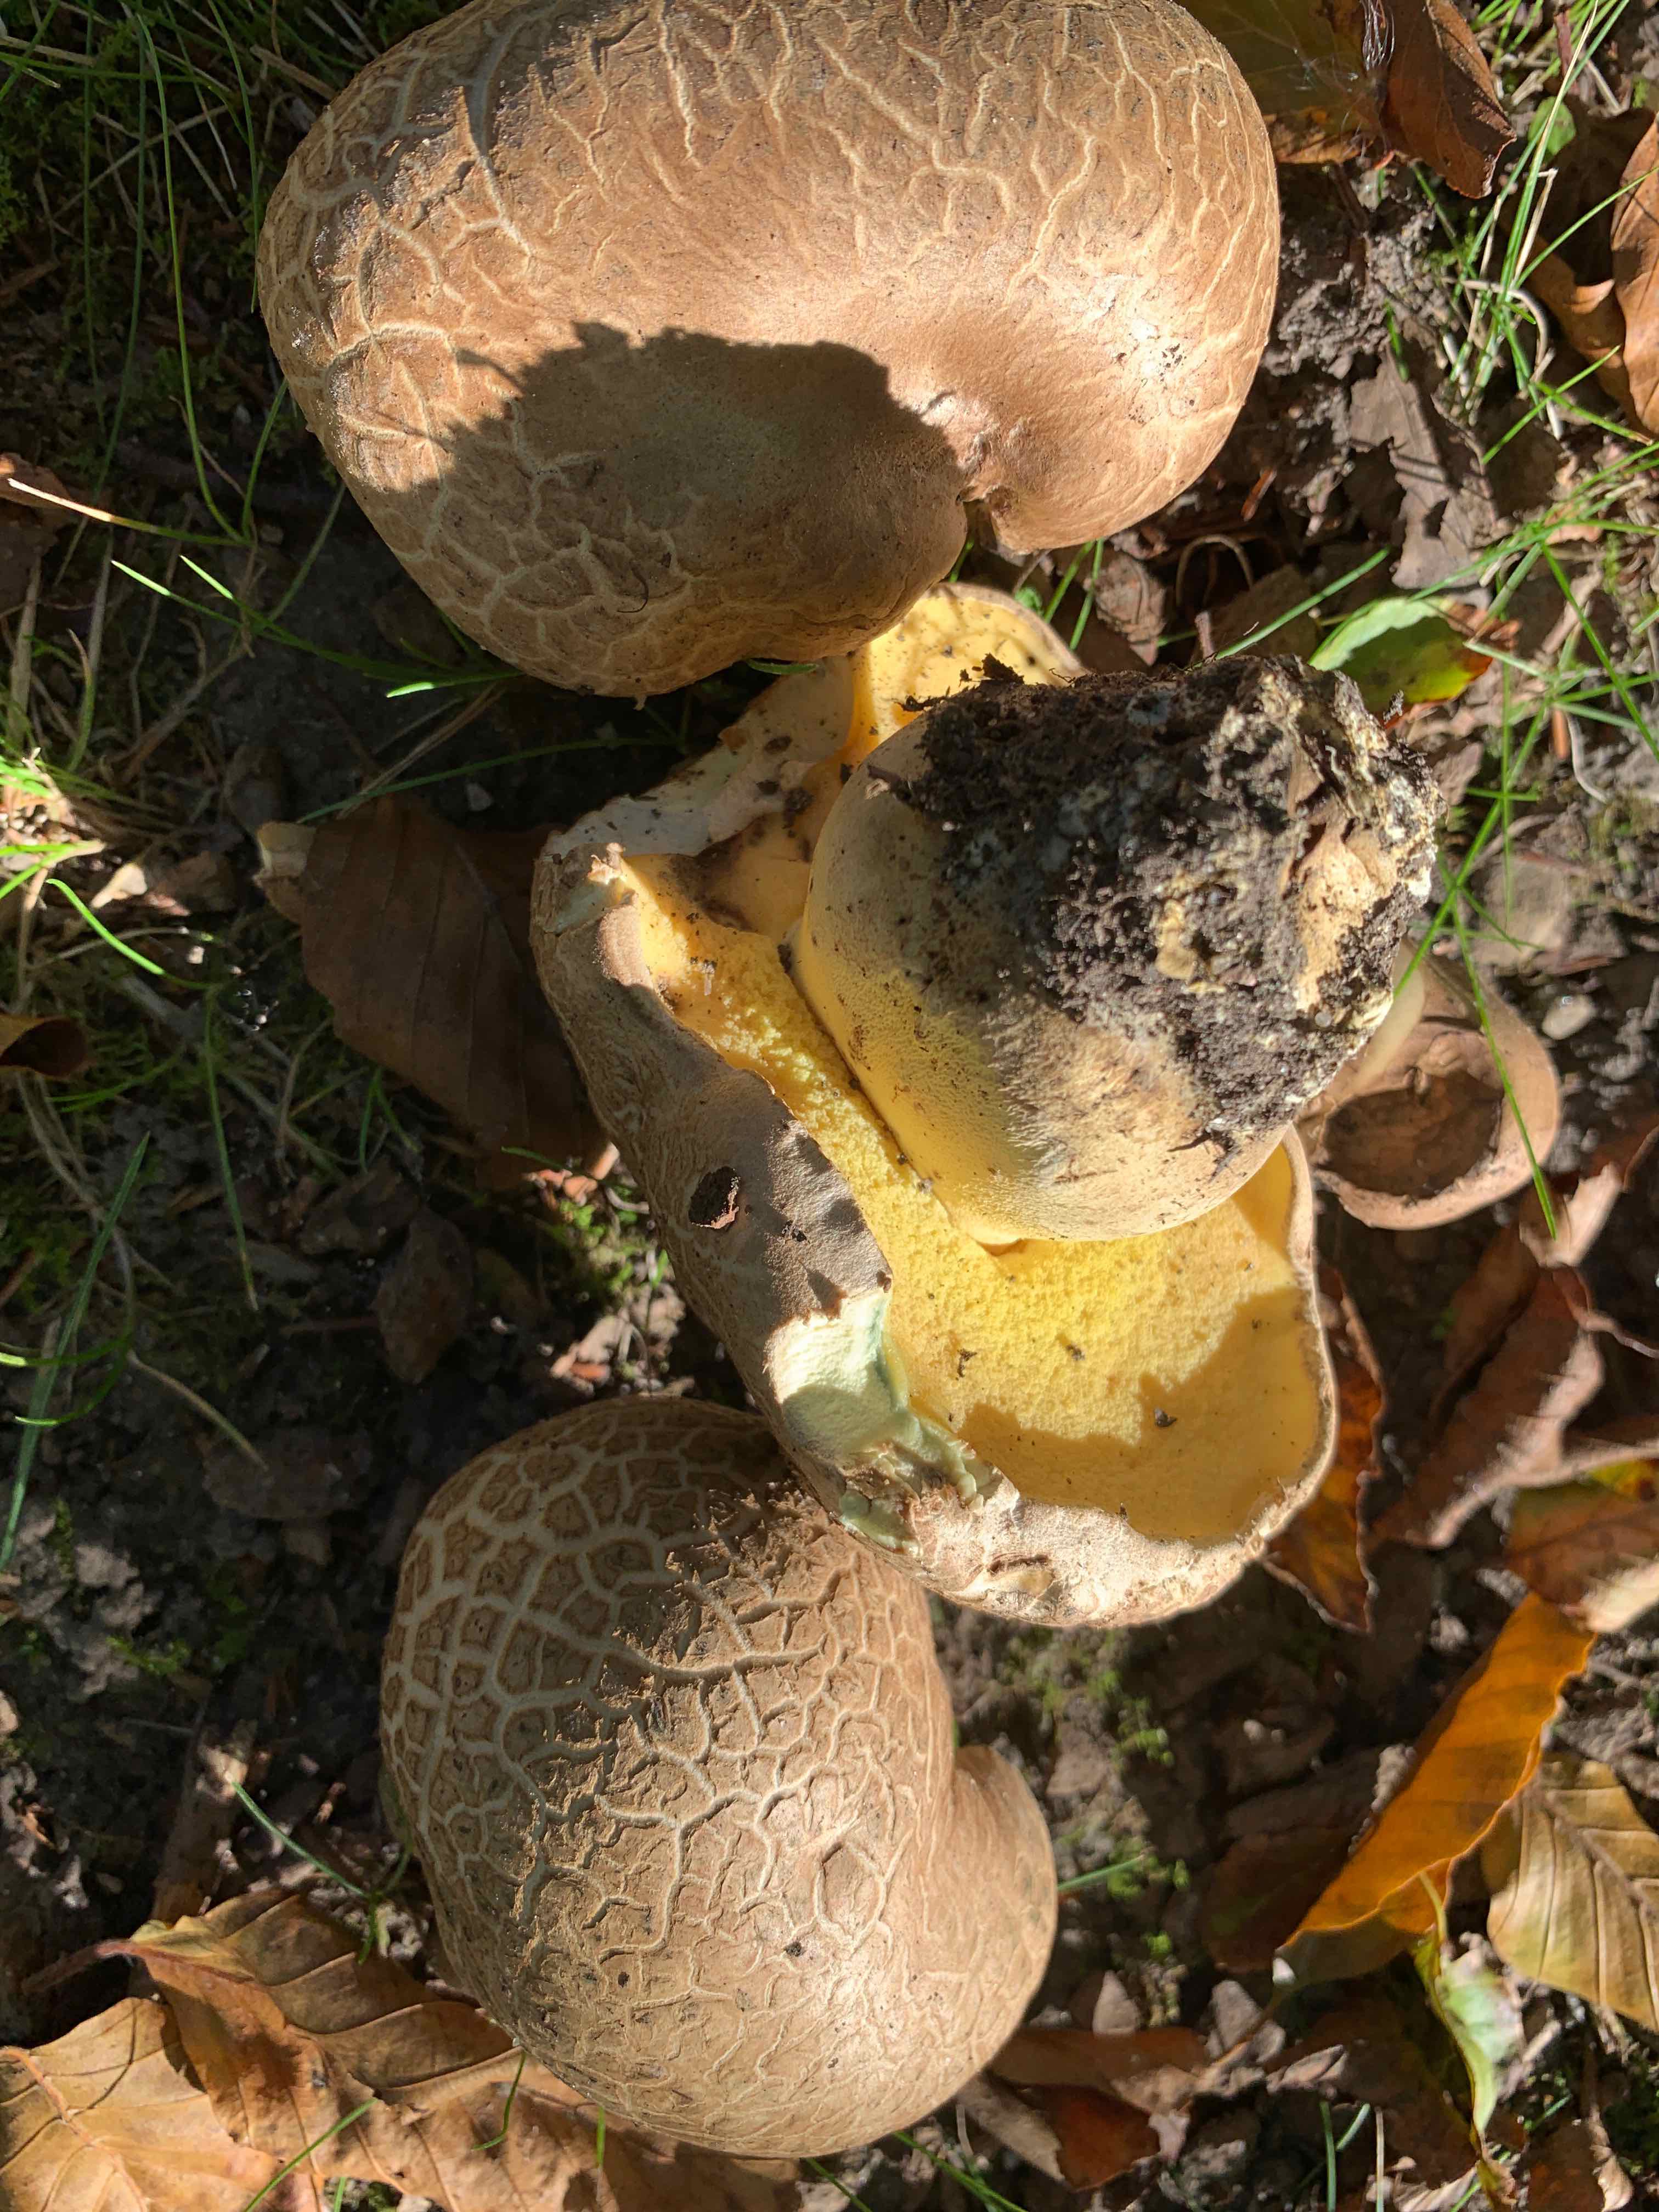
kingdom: Fungi
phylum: Basidiomycota
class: Agaricomycetes
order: Boletales
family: Boletaceae
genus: Caloboletus
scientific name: Caloboletus radicans
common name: rod-rørhat
